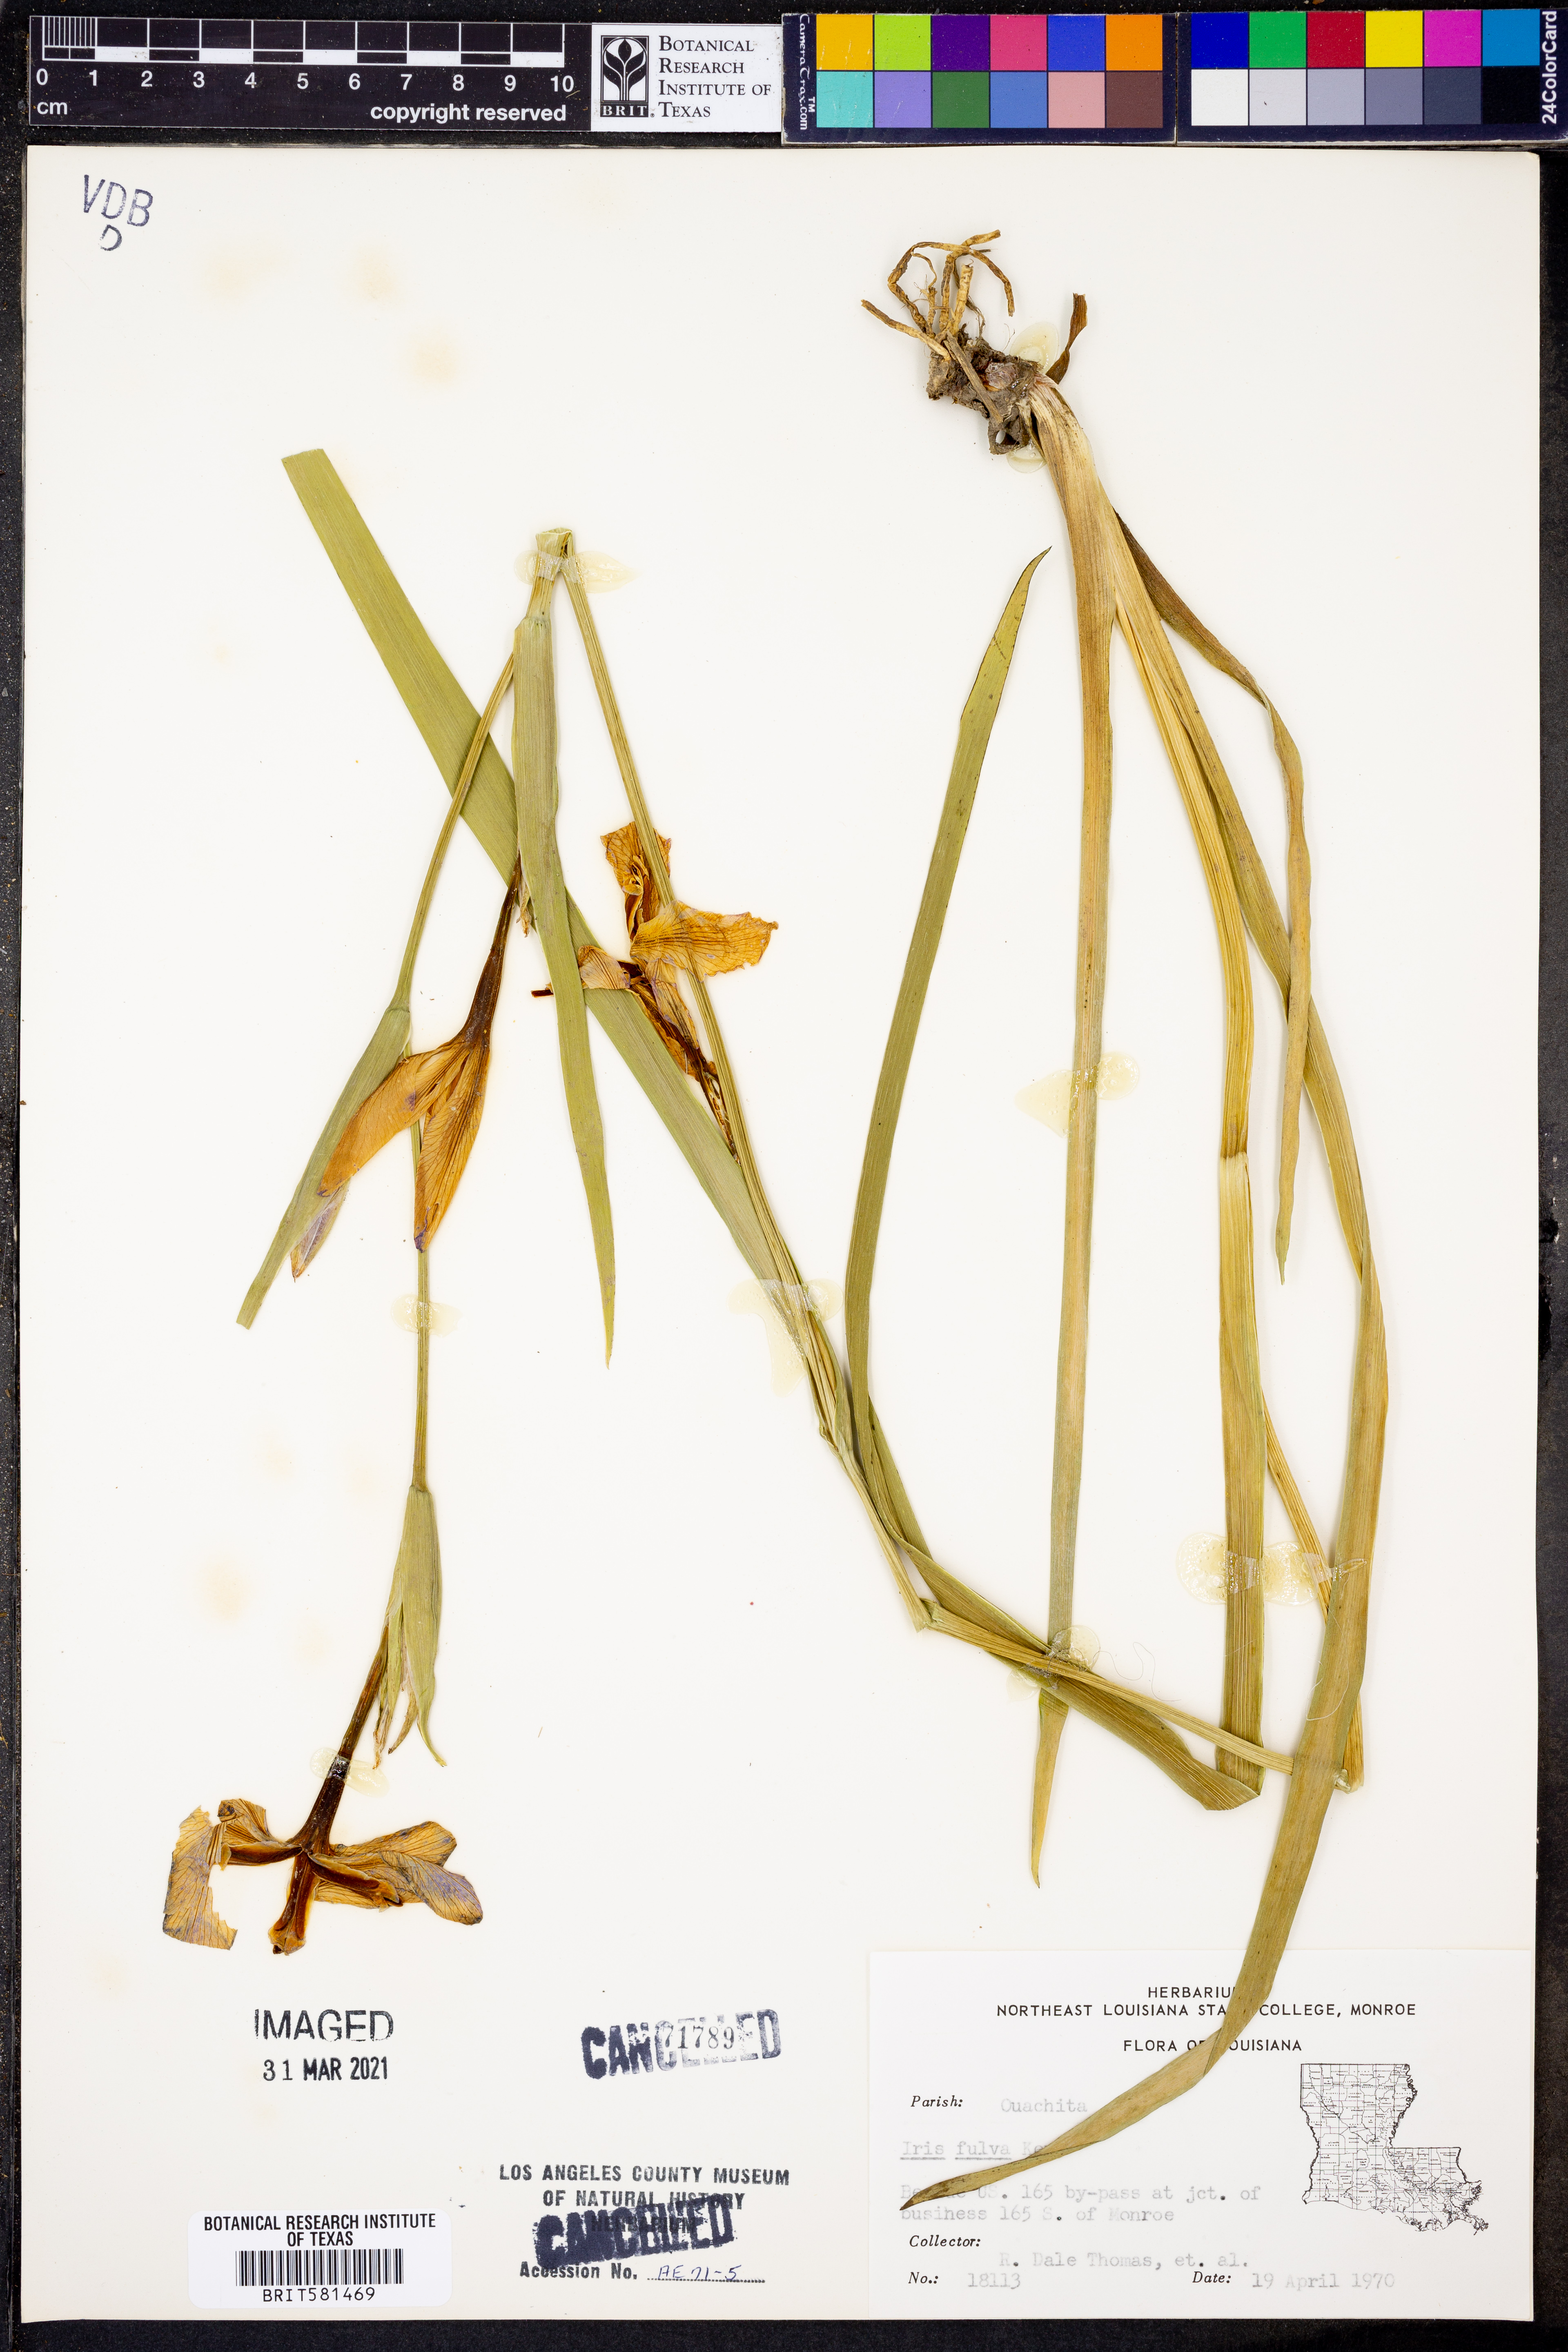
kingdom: Plantae
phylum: Tracheophyta
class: Liliopsida
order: Asparagales
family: Iridaceae
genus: Iris
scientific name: Iris fulva
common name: Copper iris
